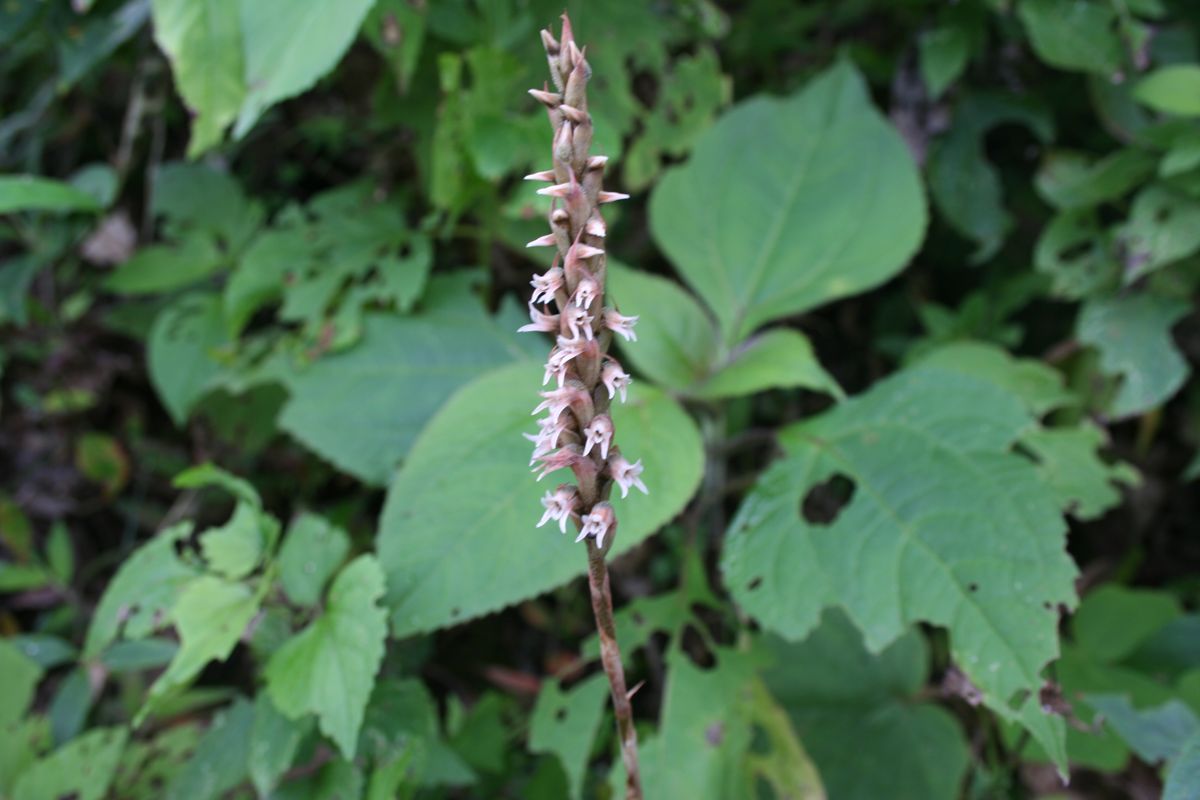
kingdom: Plantae
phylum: Tracheophyta
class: Liliopsida
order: Asparagales
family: Orchidaceae
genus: Aulosepalum
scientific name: Aulosepalum pyramidale
